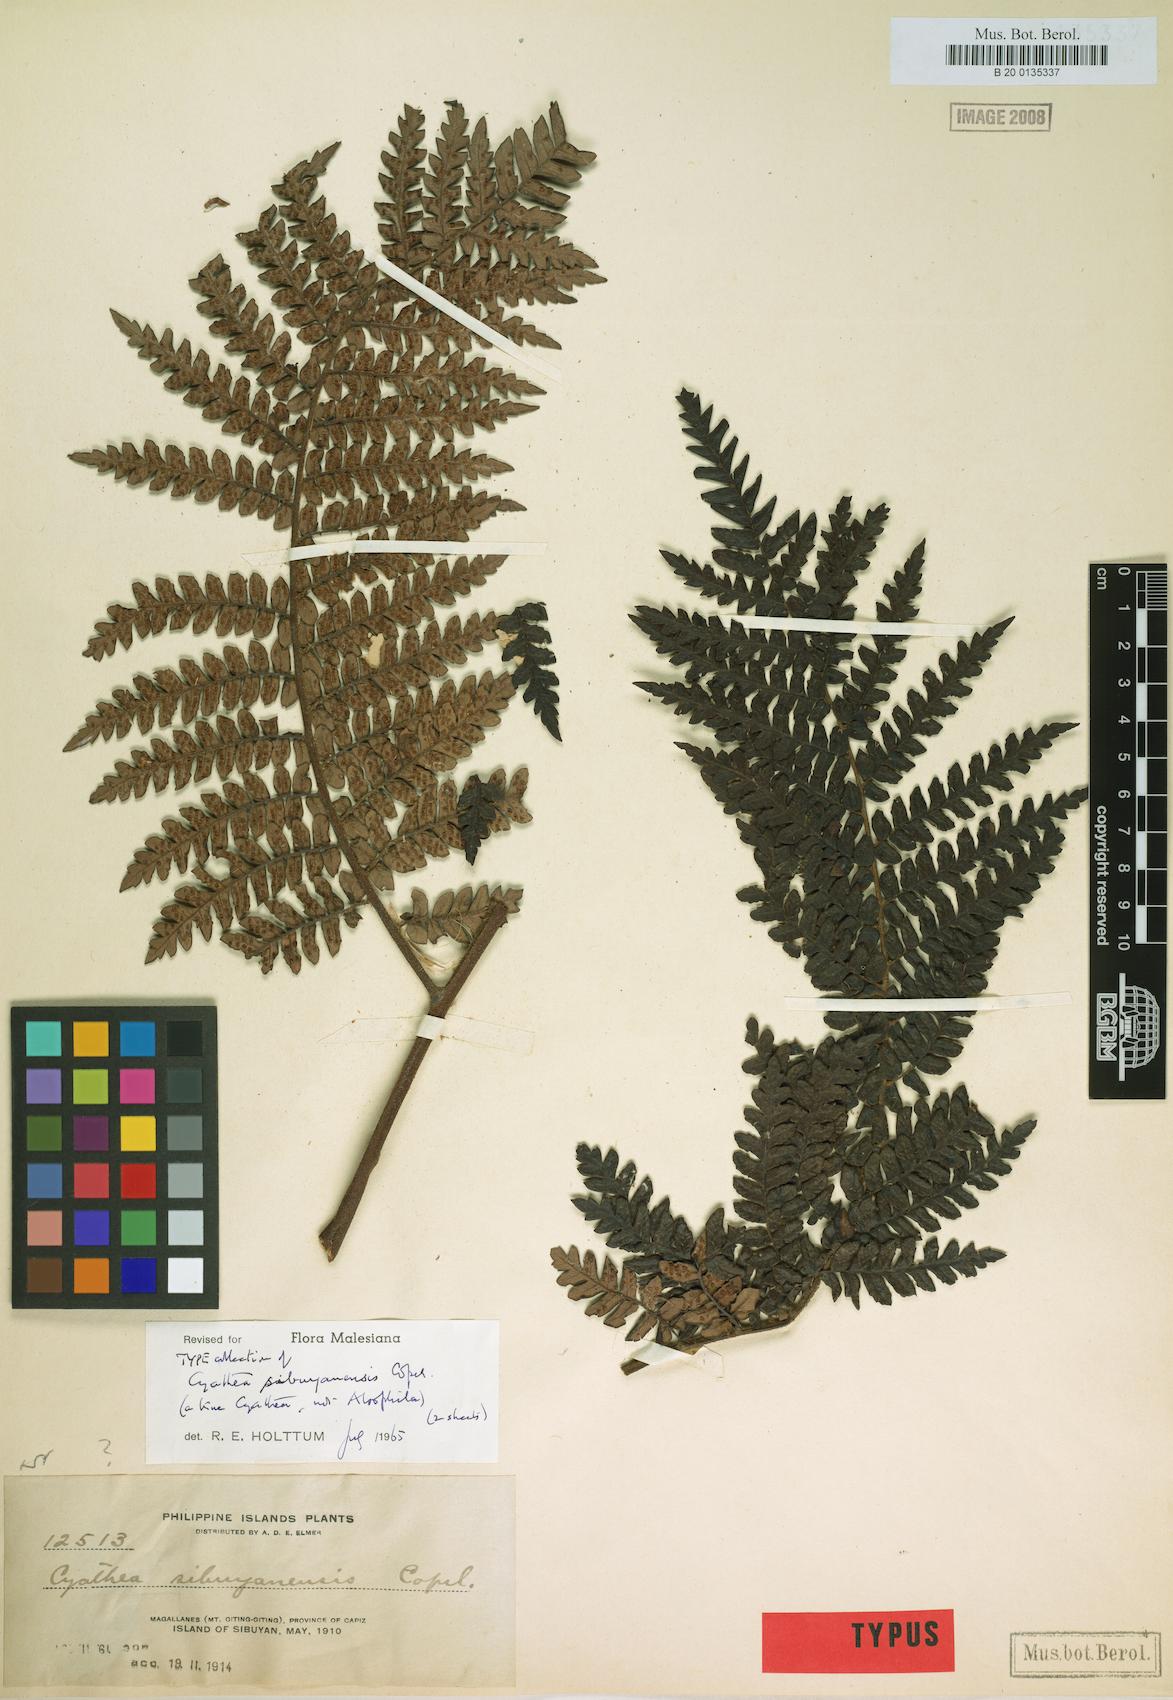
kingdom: Plantae
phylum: Tracheophyta
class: Polypodiopsida
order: Cyatheales
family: Cyatheaceae
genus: Sphaeropteris
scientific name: Sphaeropteris sibuyanensis
